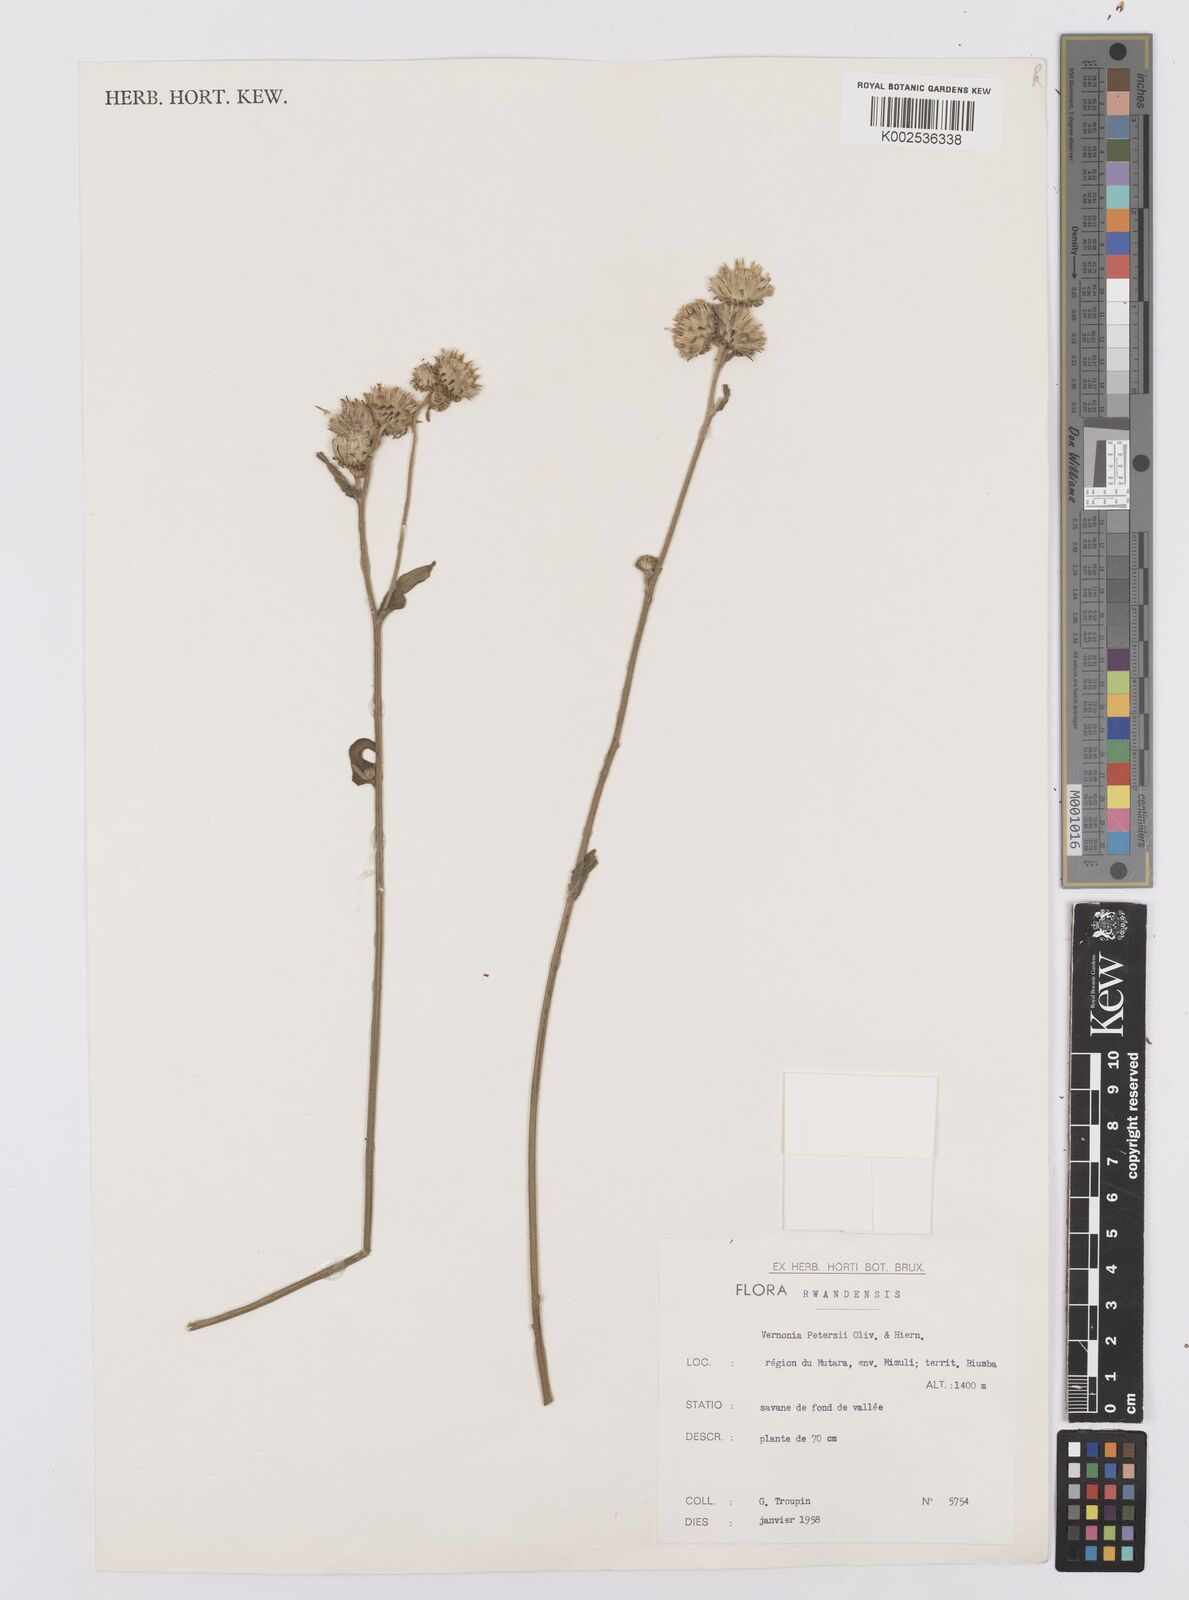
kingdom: Plantae
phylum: Tracheophyta
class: Magnoliopsida
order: Asterales
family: Asteraceae
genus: Vernoniastrum
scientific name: Vernoniastrum latifolium
